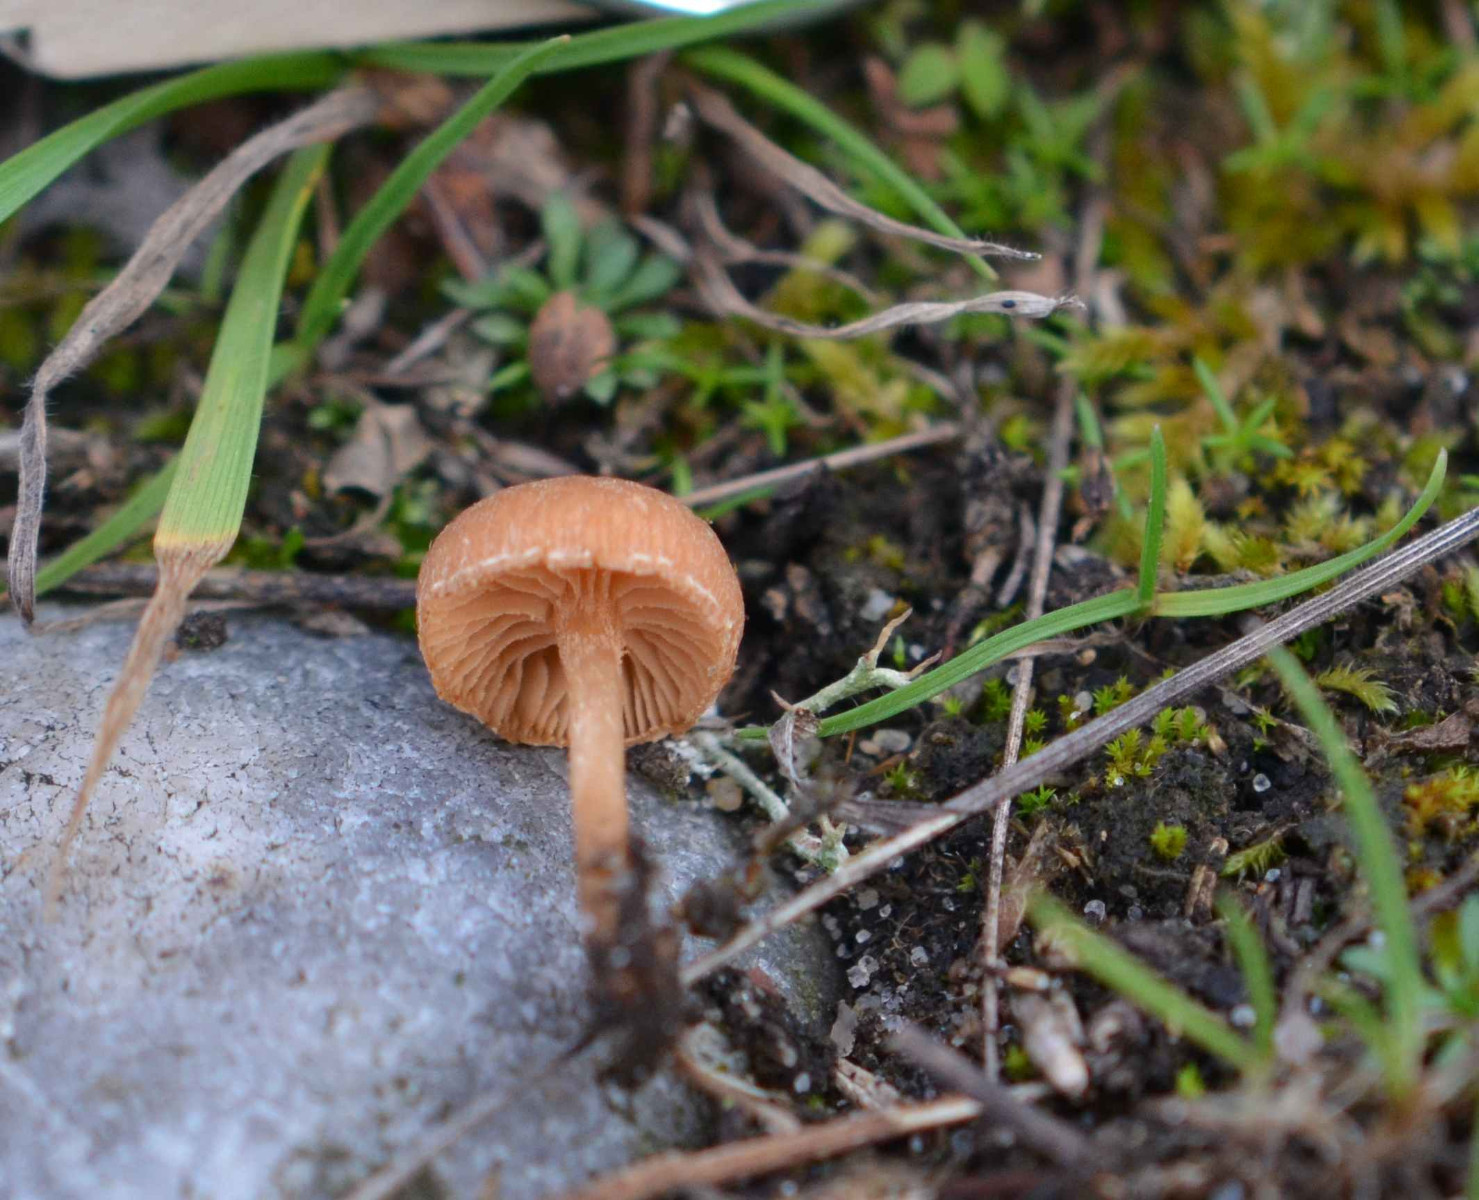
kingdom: Fungi
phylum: Basidiomycota
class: Agaricomycetes
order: Agaricales
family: Tubariaceae
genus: Tubaria
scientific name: Tubaria furfuracea
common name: kliddet fnughat
